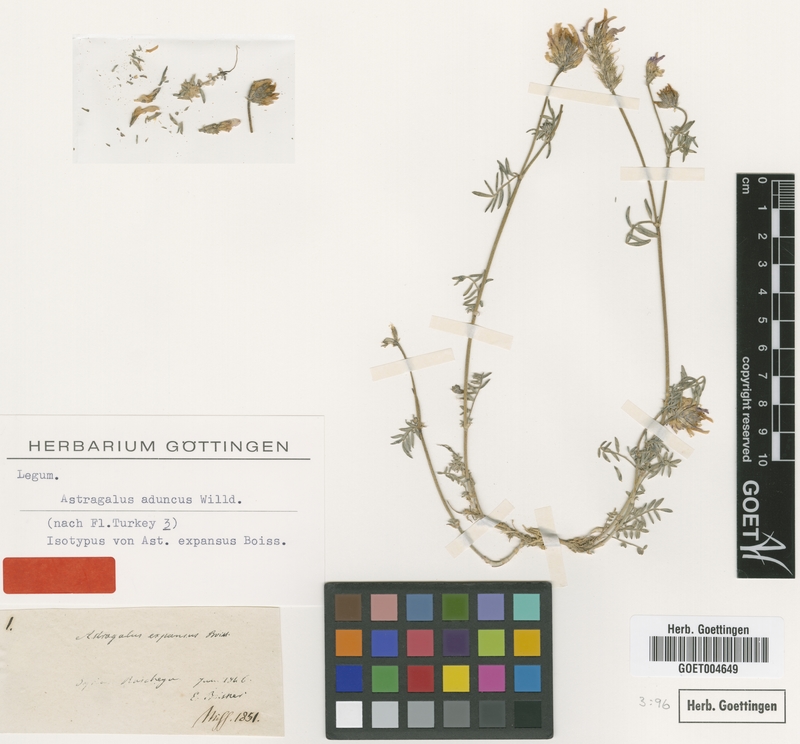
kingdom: Plantae
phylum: Tracheophyta
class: Magnoliopsida
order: Fabales
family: Fabaceae
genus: Astragalus
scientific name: Astragalus aduncus
